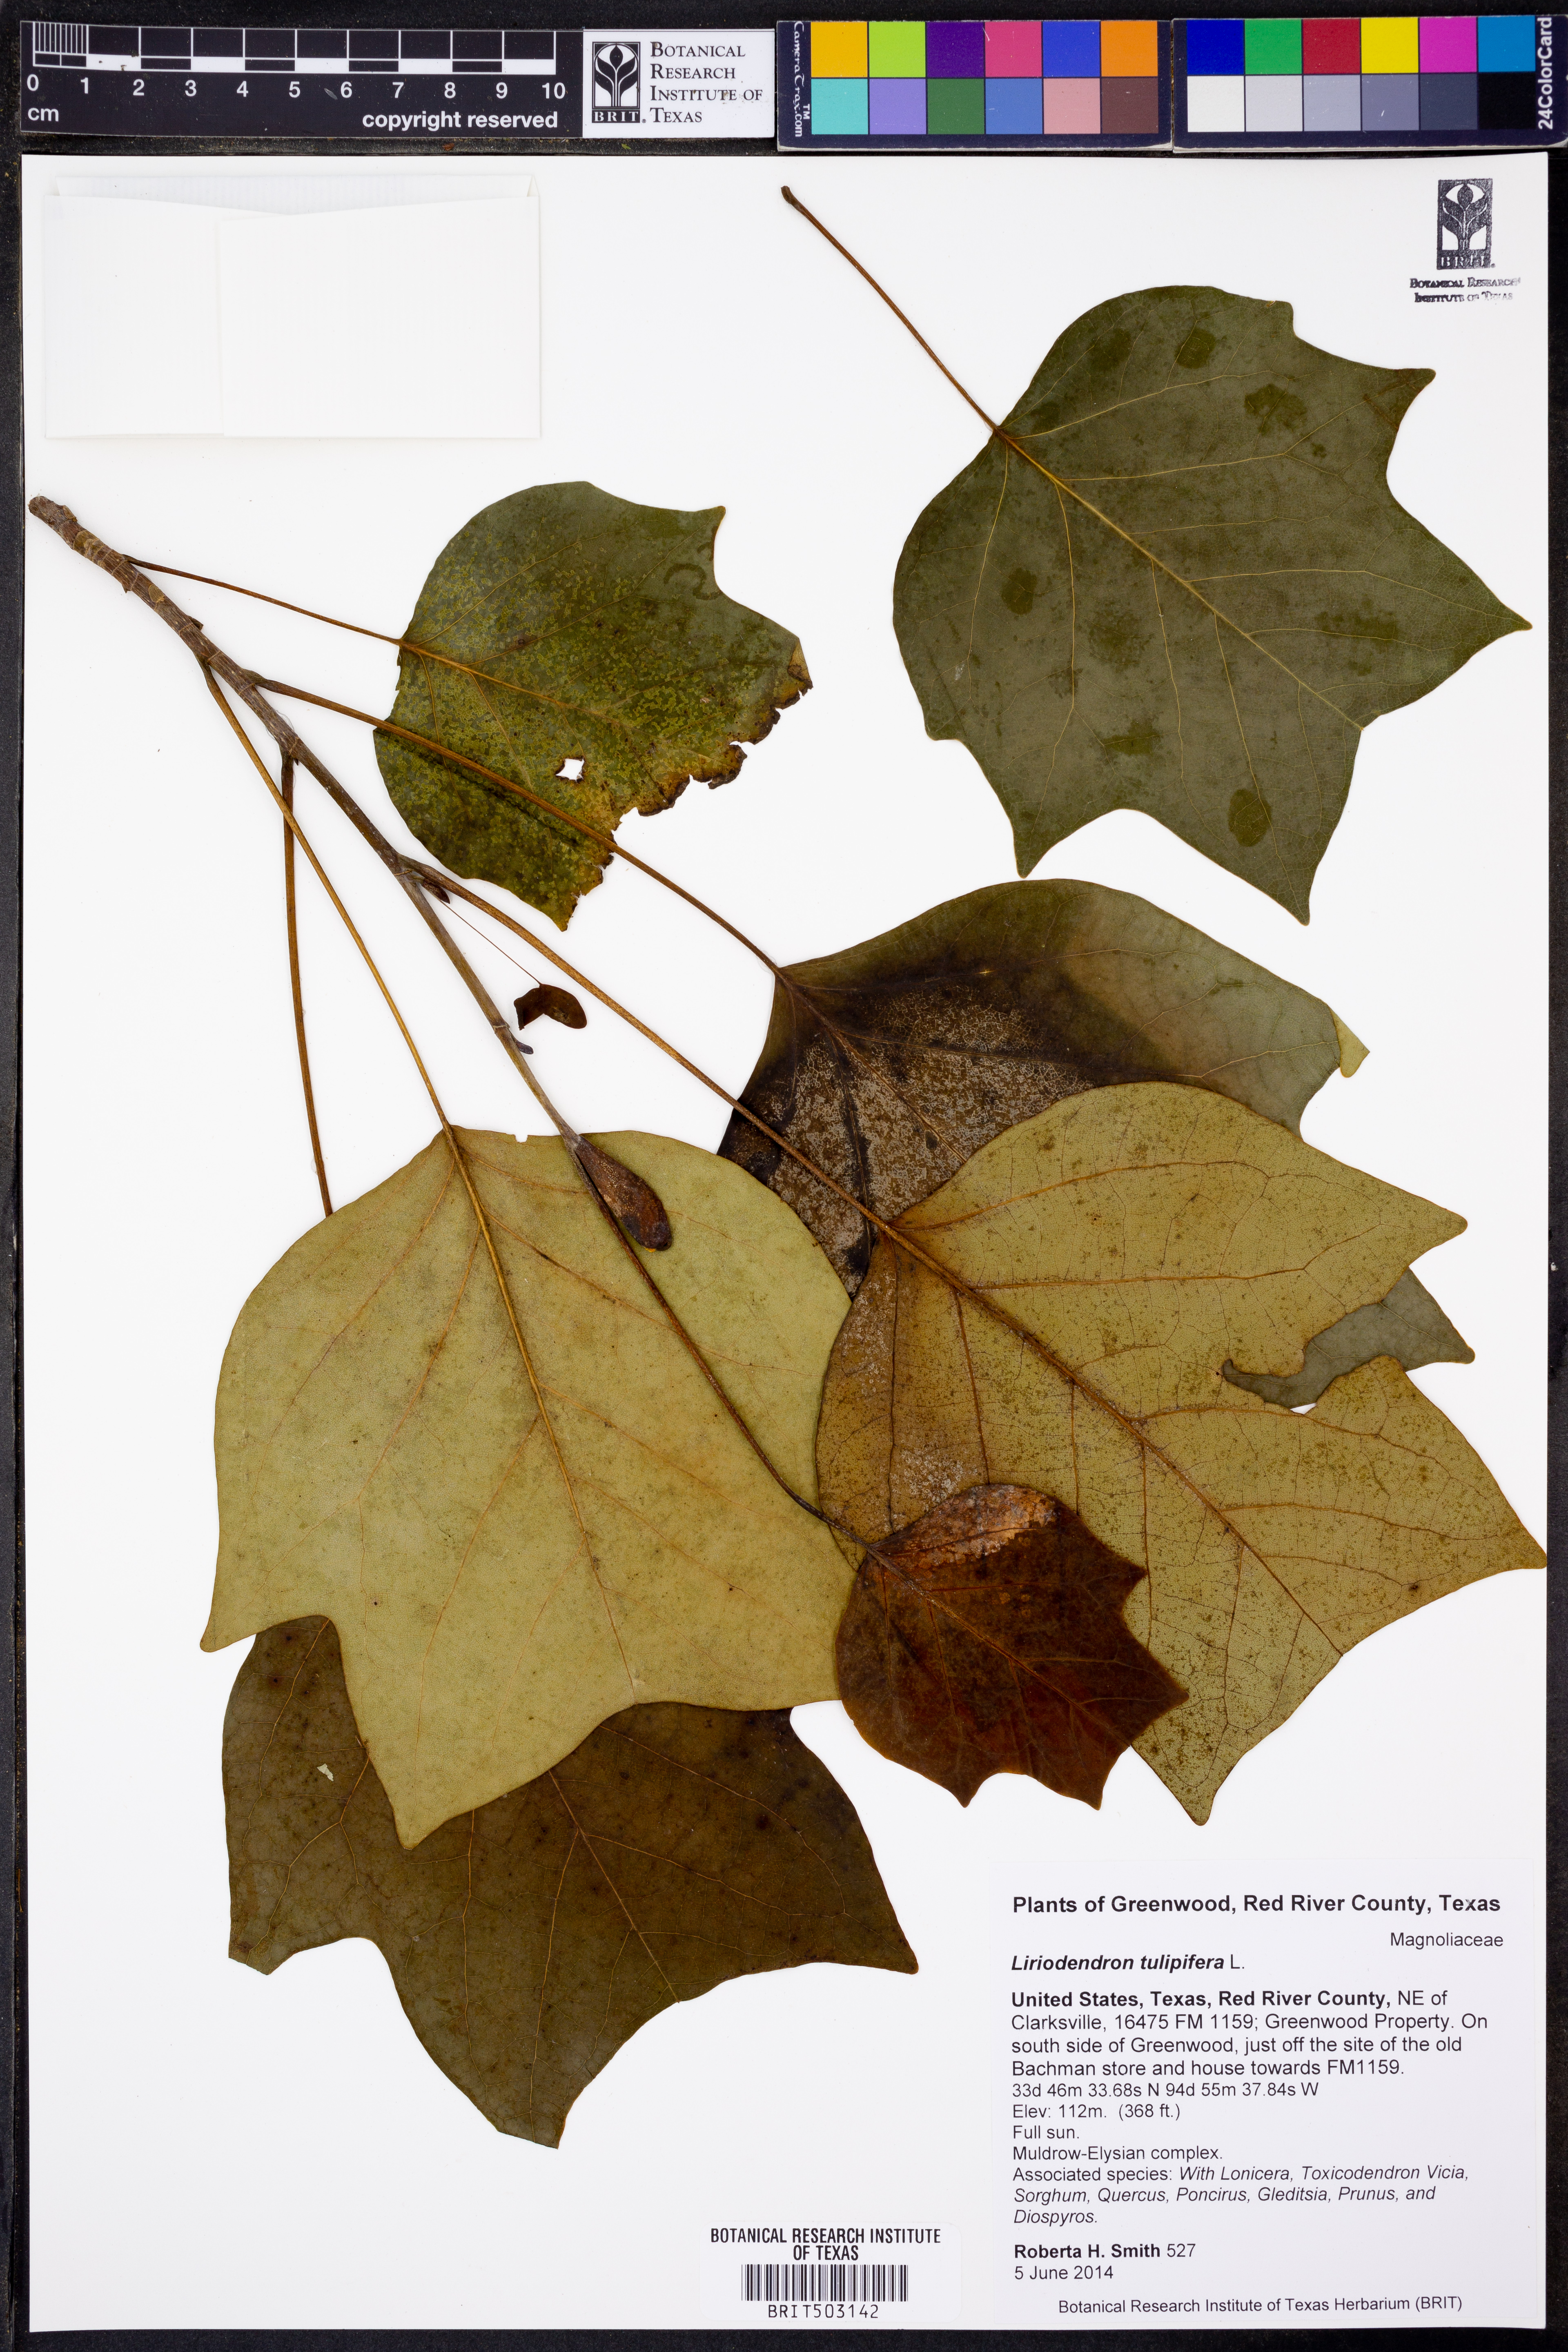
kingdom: Plantae
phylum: Tracheophyta
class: Magnoliopsida
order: Magnoliales
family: Magnoliaceae
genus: Liriodendron
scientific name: Liriodendron tulipifera
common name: Tulip tree
